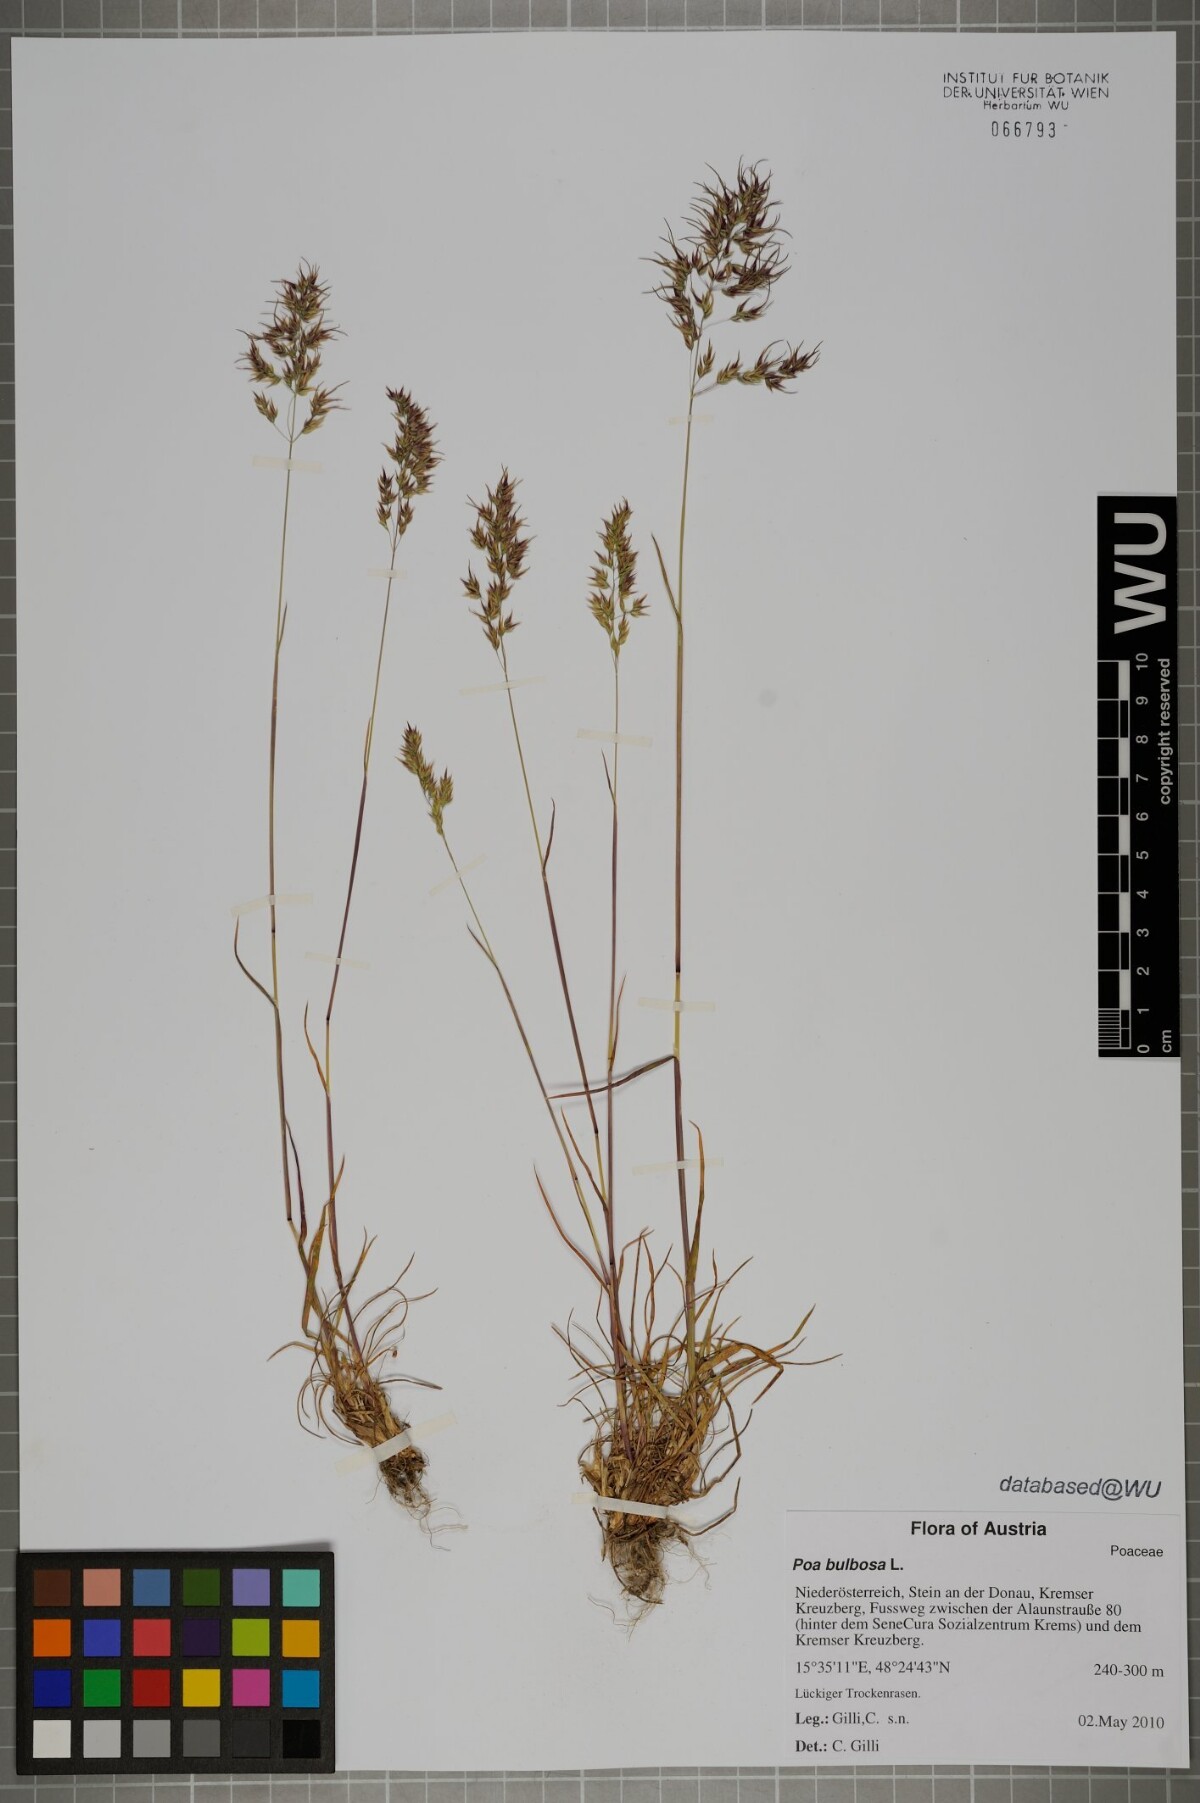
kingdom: Plantae
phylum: Tracheophyta
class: Liliopsida
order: Poales
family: Poaceae
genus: Poa
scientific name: Poa bulbosa
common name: Bulbous bluegrass
